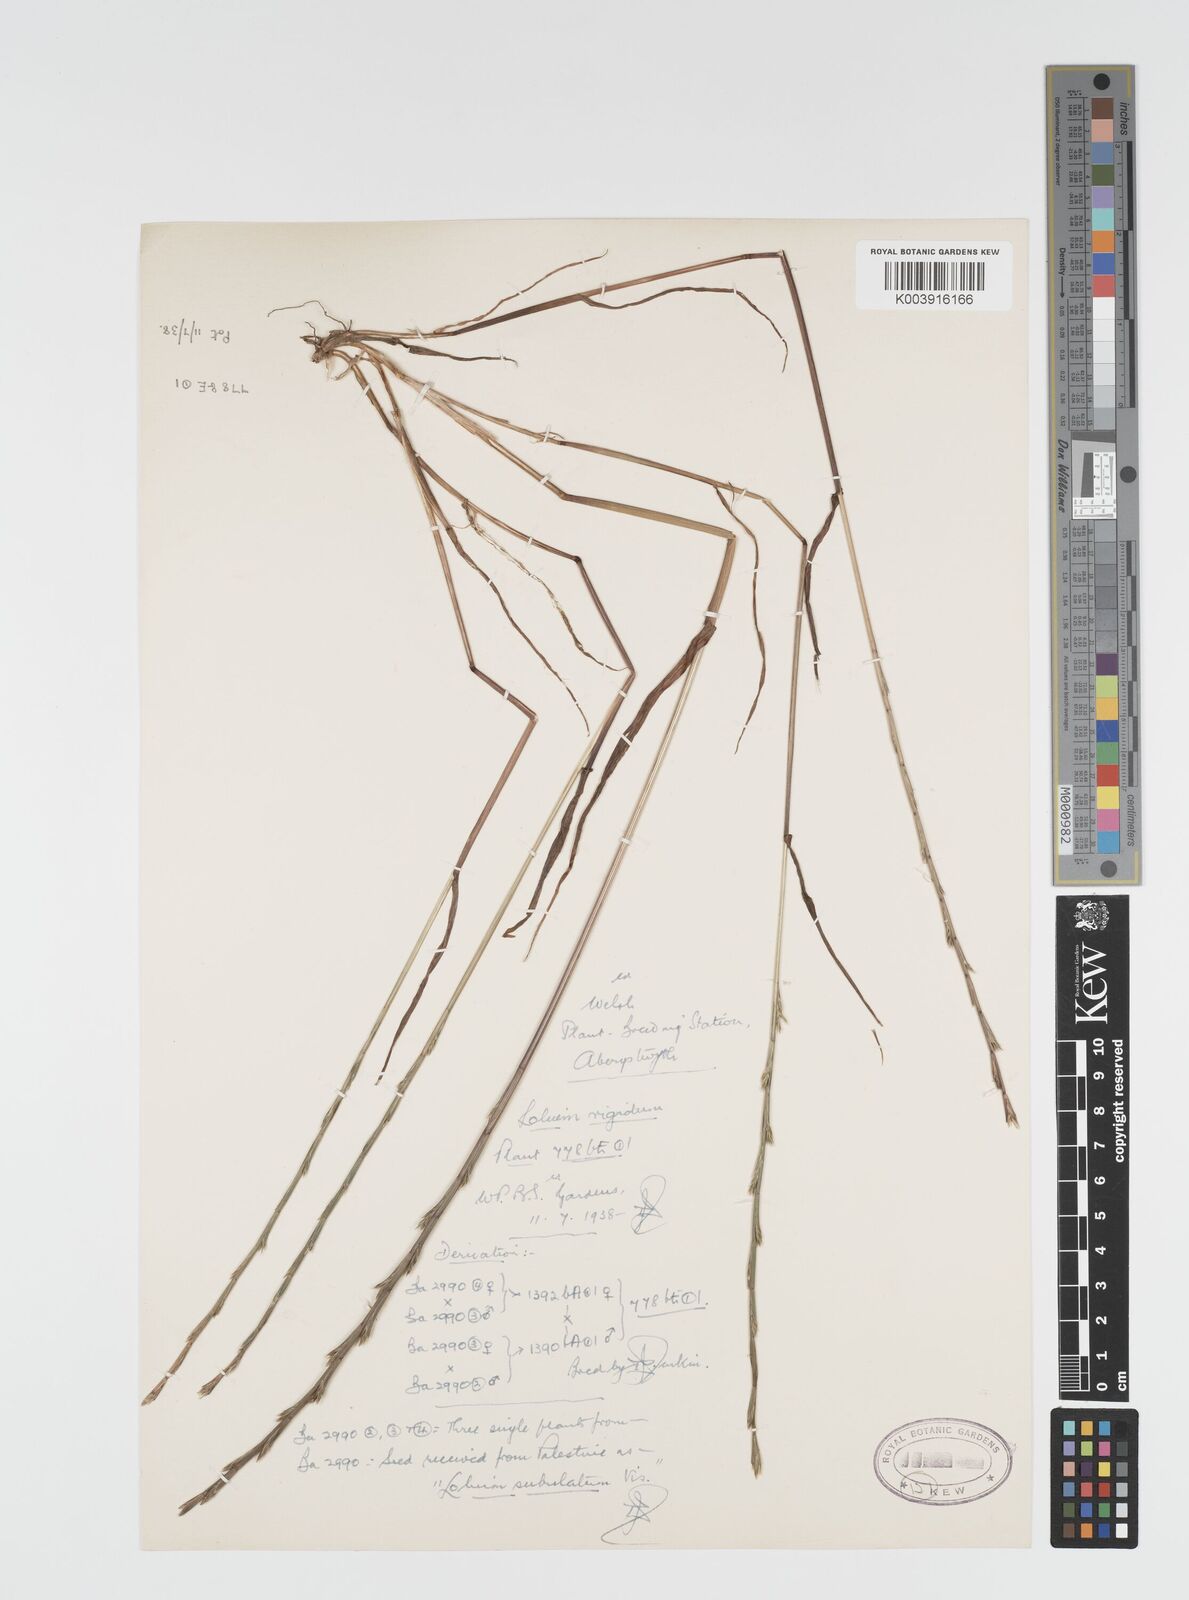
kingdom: Plantae
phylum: Tracheophyta
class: Liliopsida
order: Poales
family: Poaceae
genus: Lolium
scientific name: Lolium rigidum
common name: Wimmera ryegrass
